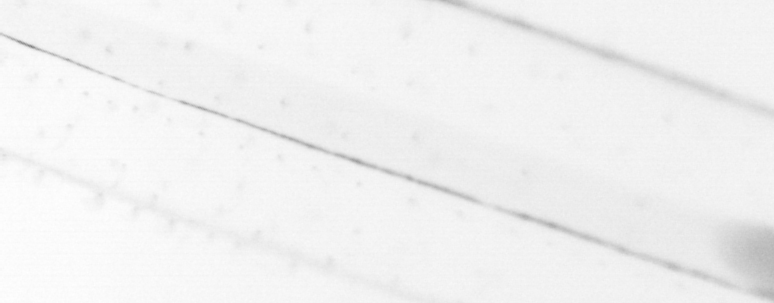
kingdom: Animalia
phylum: Chaetognatha
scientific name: Chaetognatha
